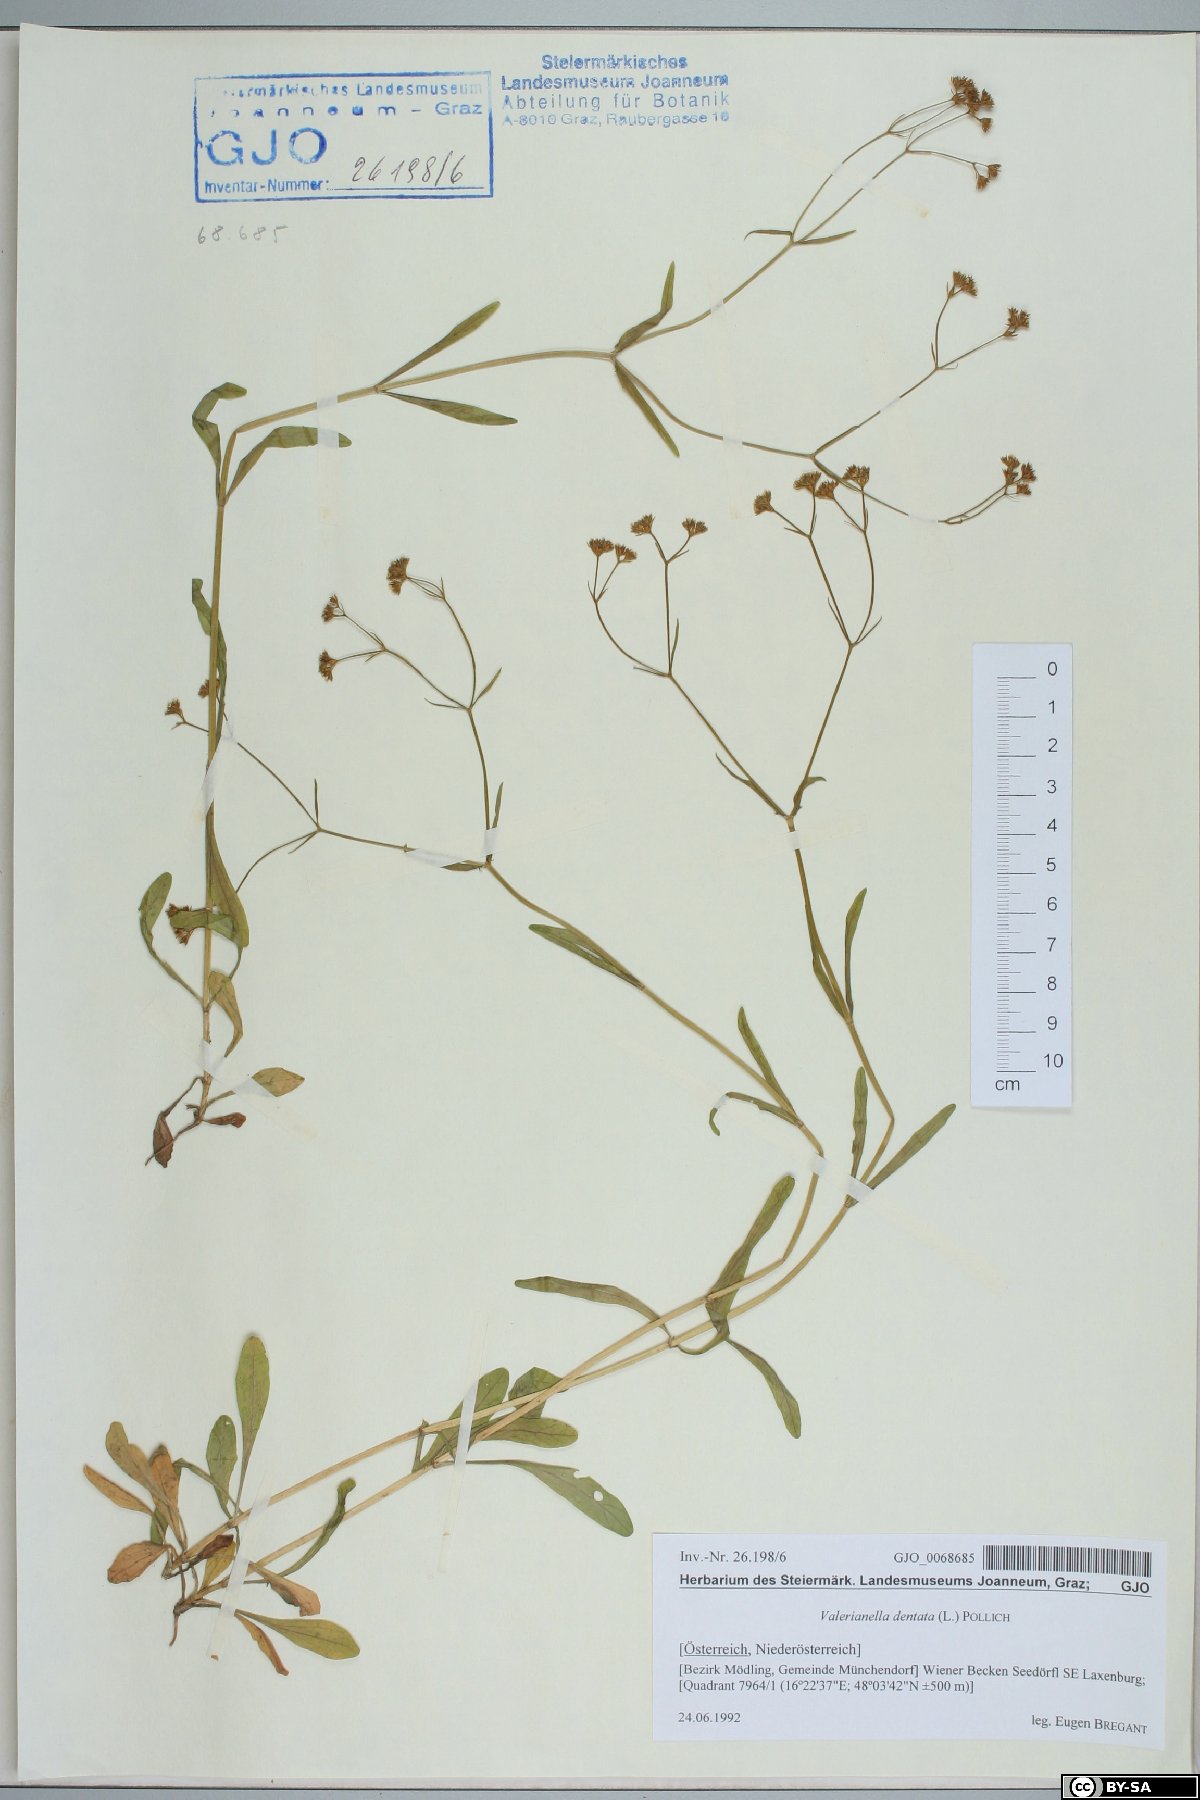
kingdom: Plantae
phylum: Tracheophyta
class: Magnoliopsida
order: Dipsacales
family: Caprifoliaceae
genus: Valerianella
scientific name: Valerianella dentata
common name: Narrow-fruited cornsalad
